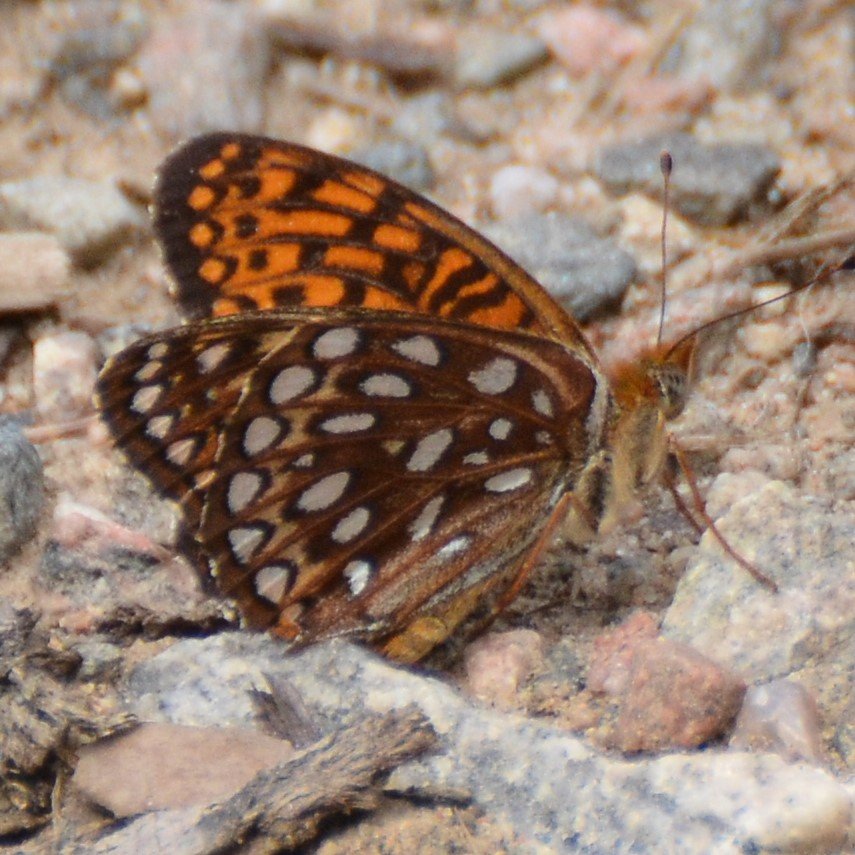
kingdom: Animalia
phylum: Arthropoda
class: Insecta
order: Lepidoptera
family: Nymphalidae
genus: Speyeria
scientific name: Speyeria atlantis
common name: Atlantis Fritillary
